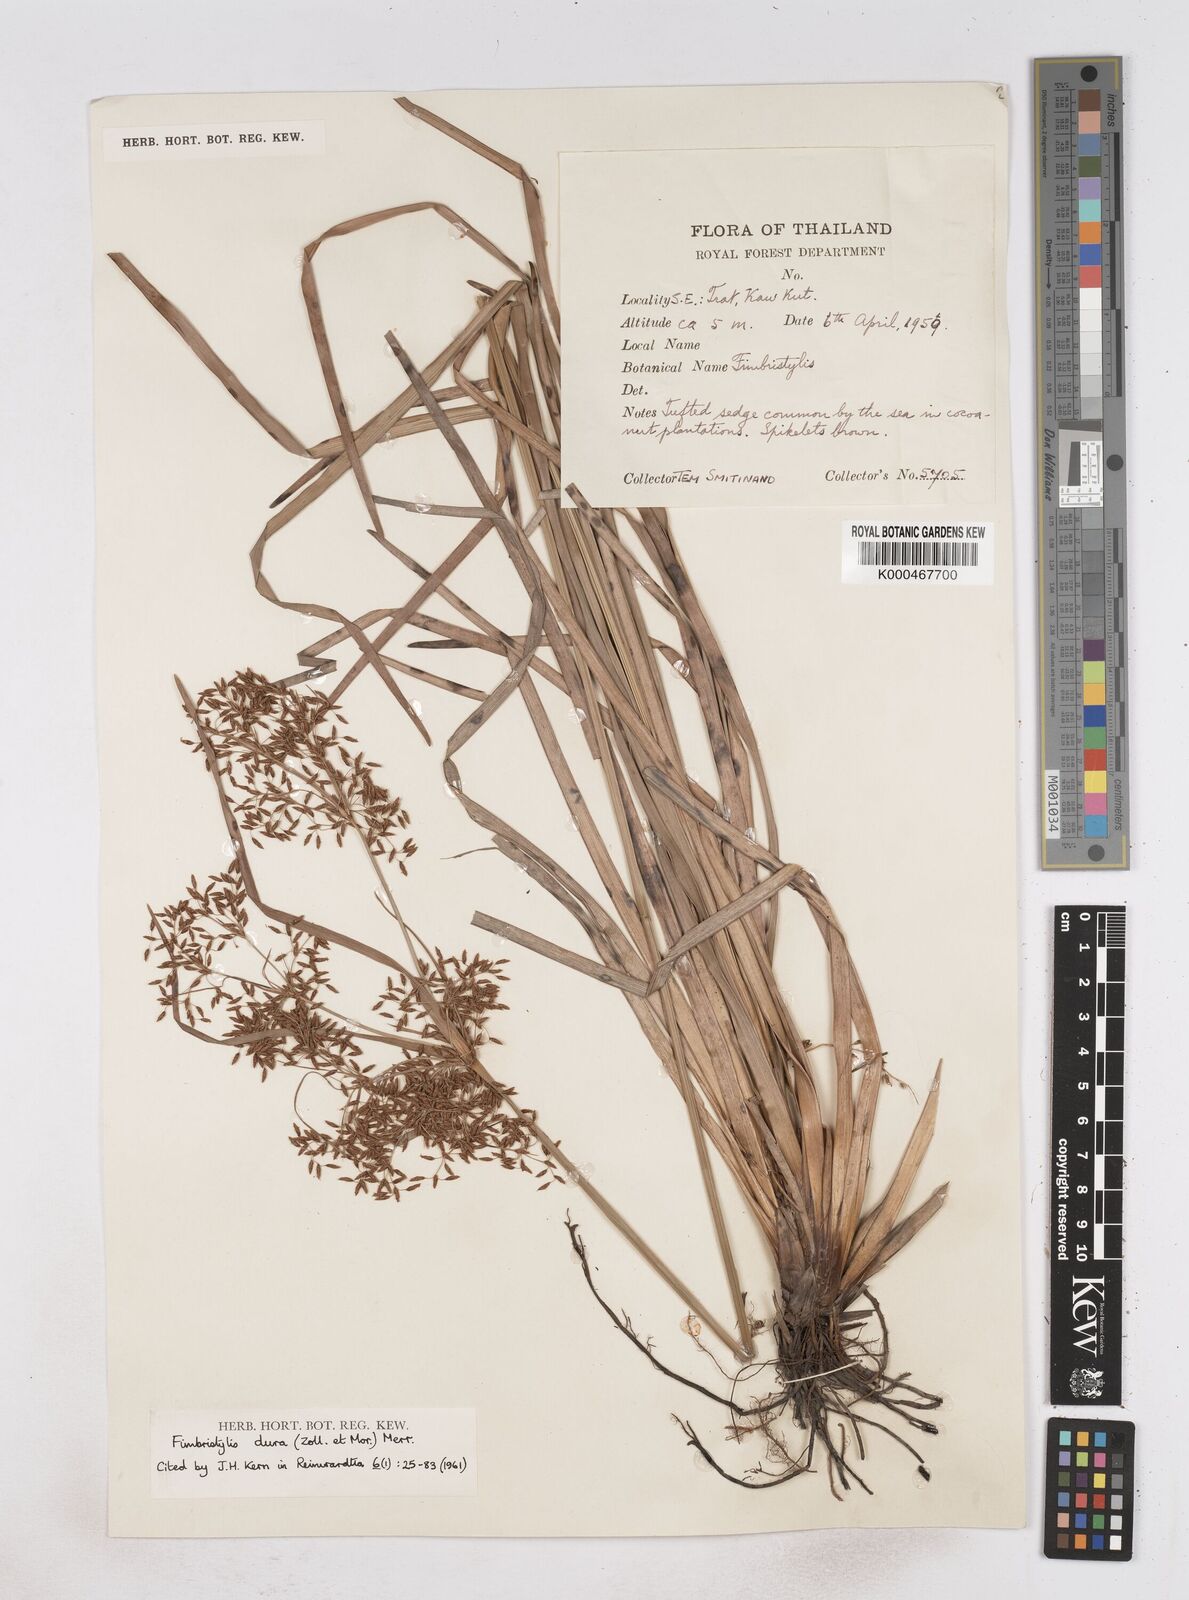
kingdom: Plantae
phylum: Tracheophyta
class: Liliopsida
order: Poales
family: Cyperaceae
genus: Fimbristylis
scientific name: Fimbristylis dura
